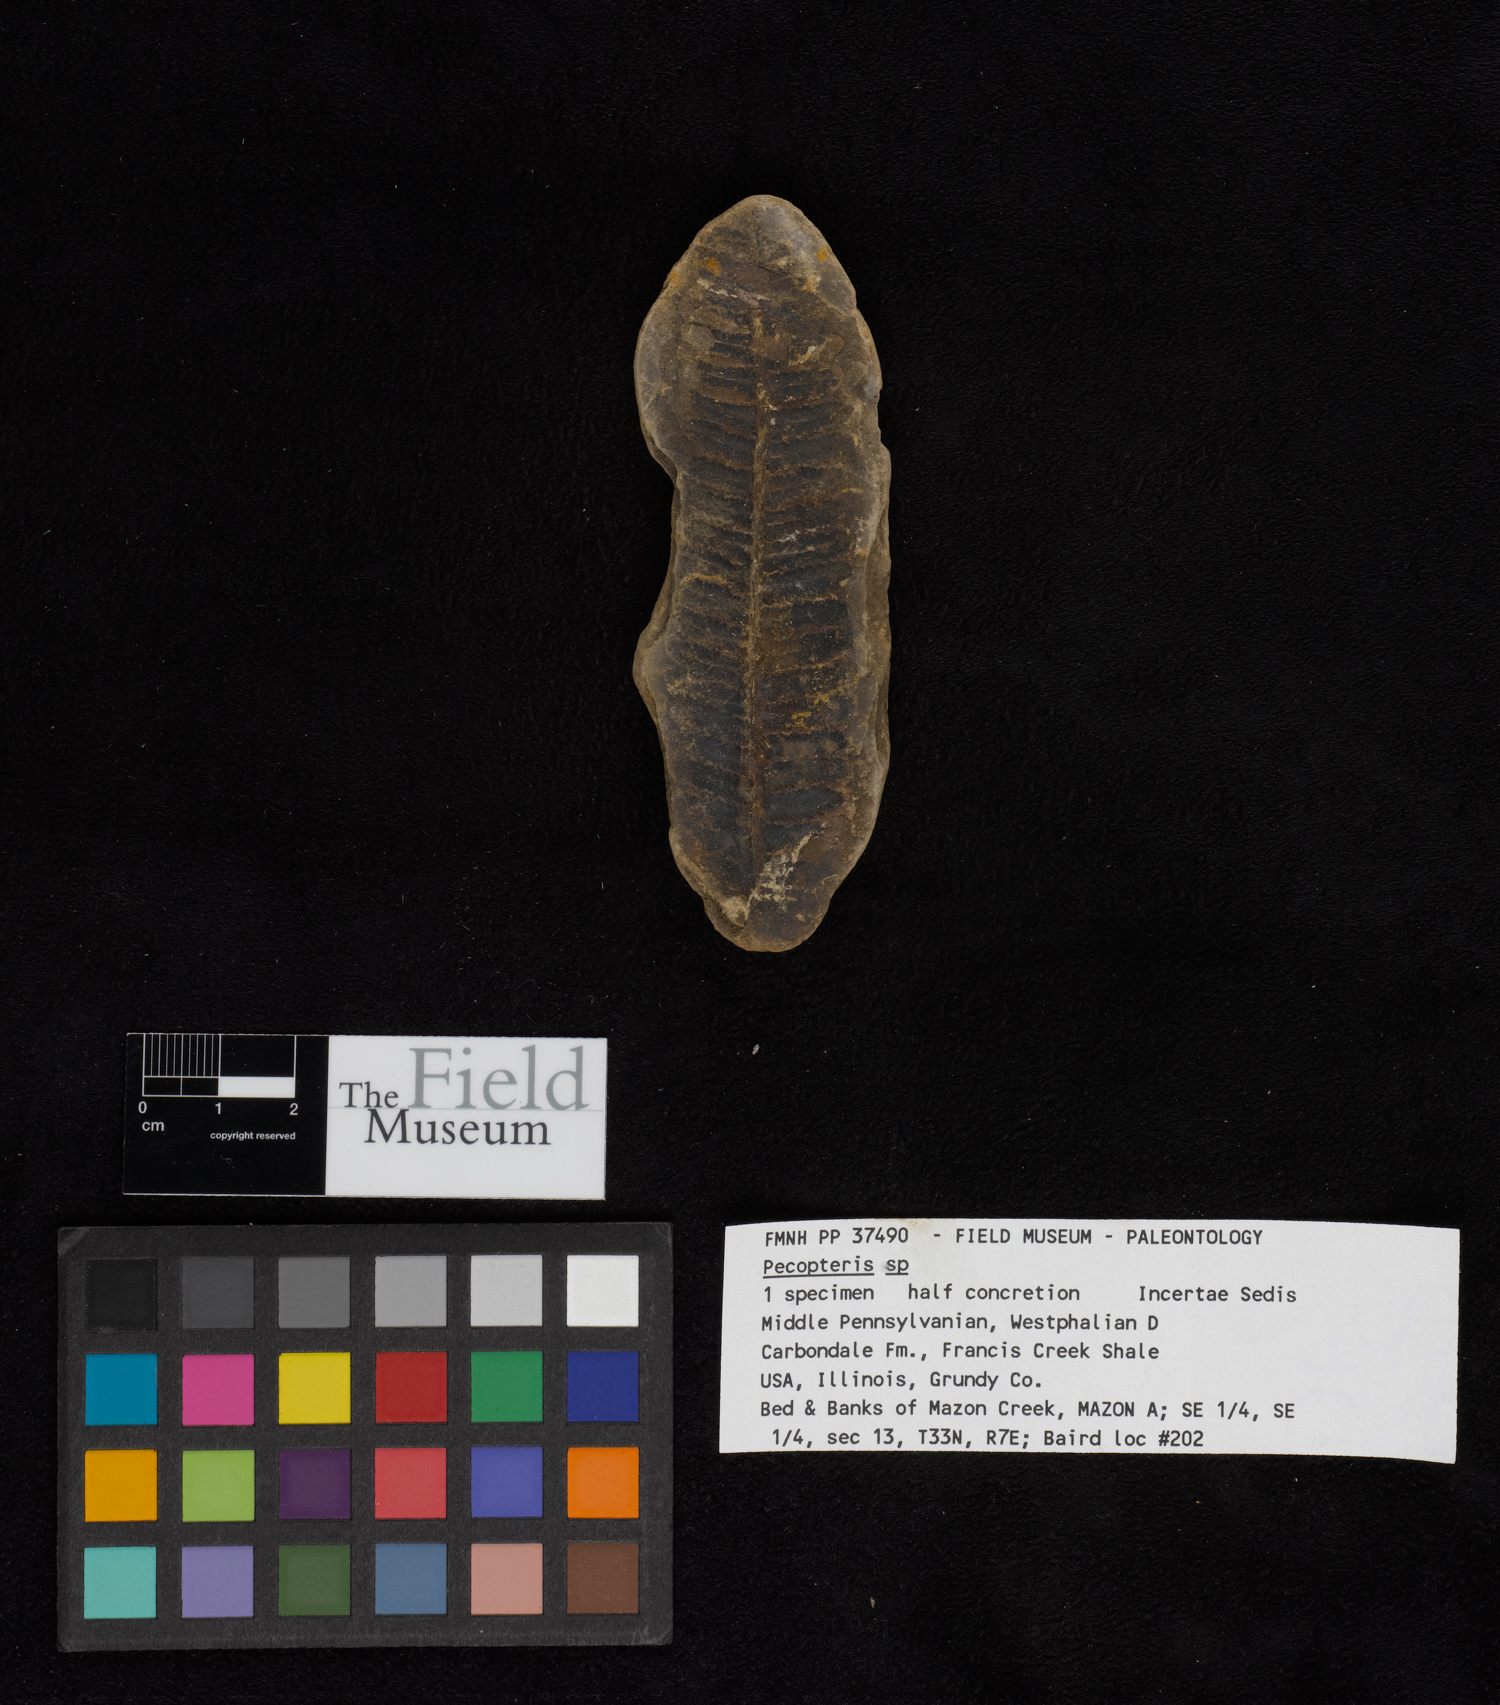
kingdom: Plantae
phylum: Tracheophyta
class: Polypodiopsida
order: Marattiales
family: Asterothecaceae
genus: Pecopteris
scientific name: Pecopteris
